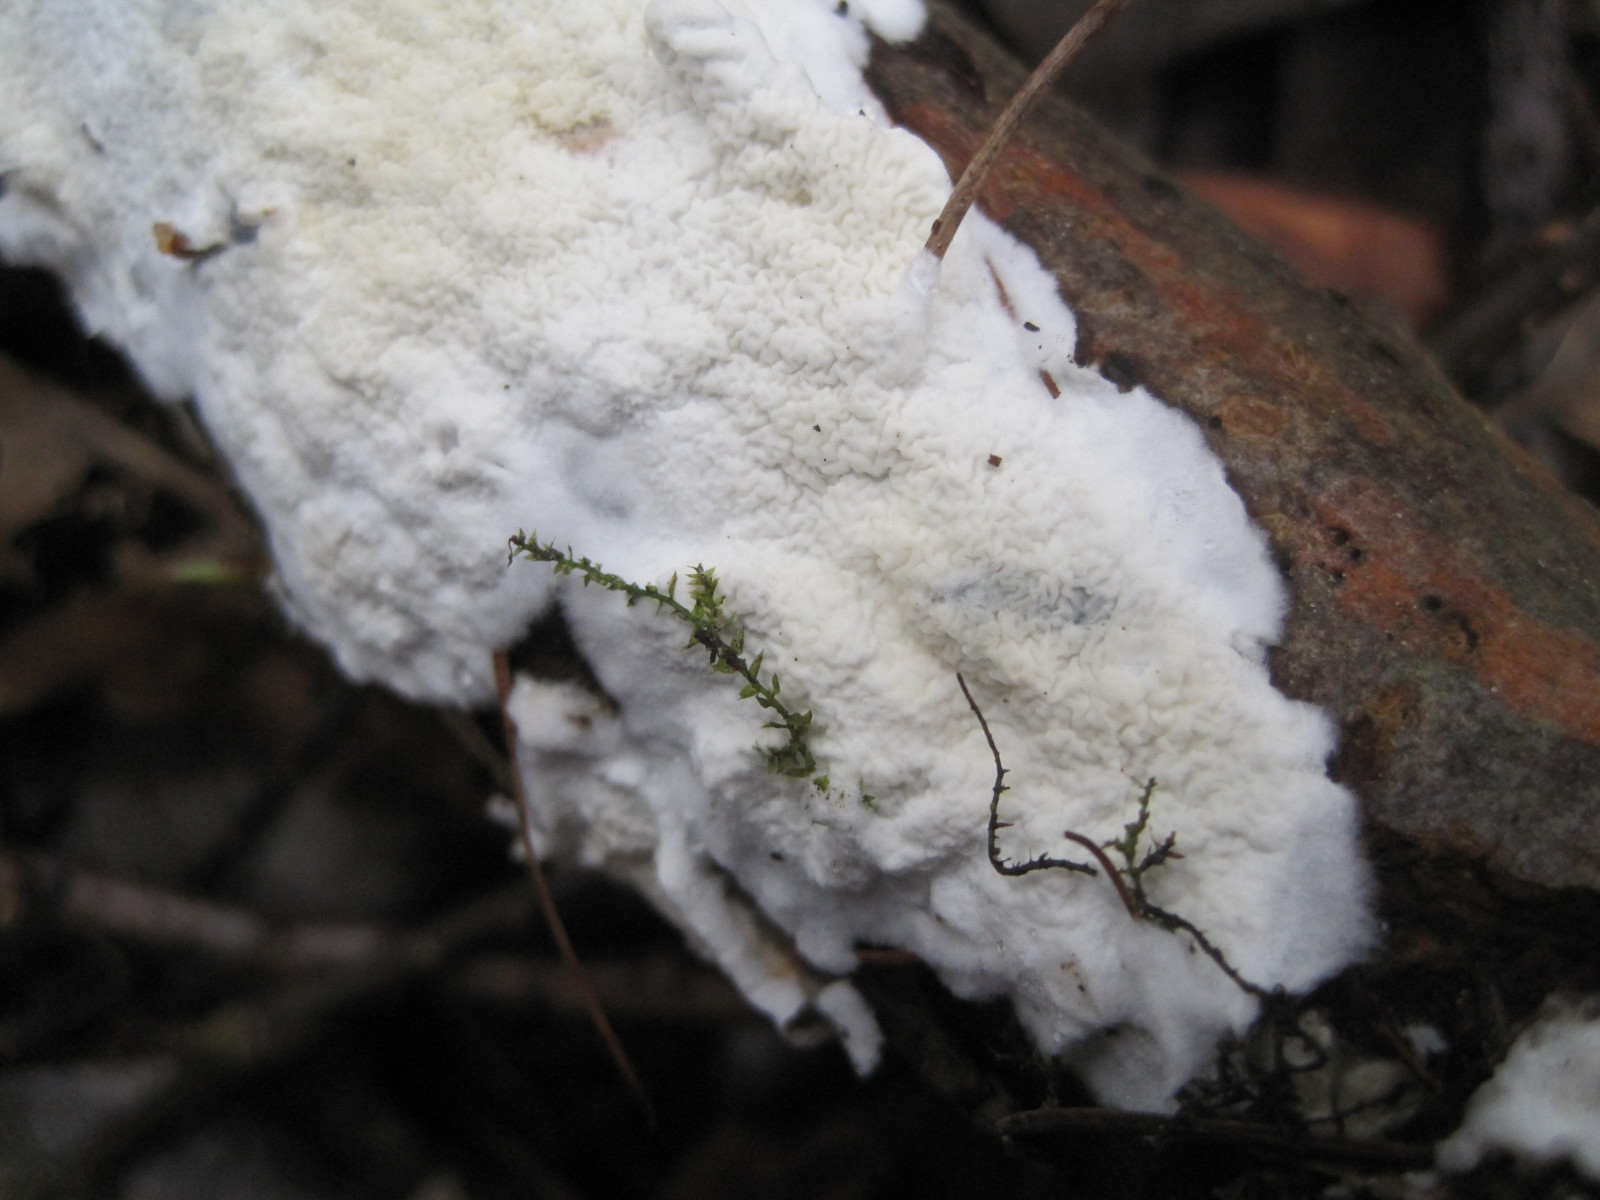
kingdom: Fungi
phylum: Basidiomycota
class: Agaricomycetes
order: Polyporales
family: Irpicaceae
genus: Byssomerulius
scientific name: Byssomerulius corium
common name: læder-åresvamp
